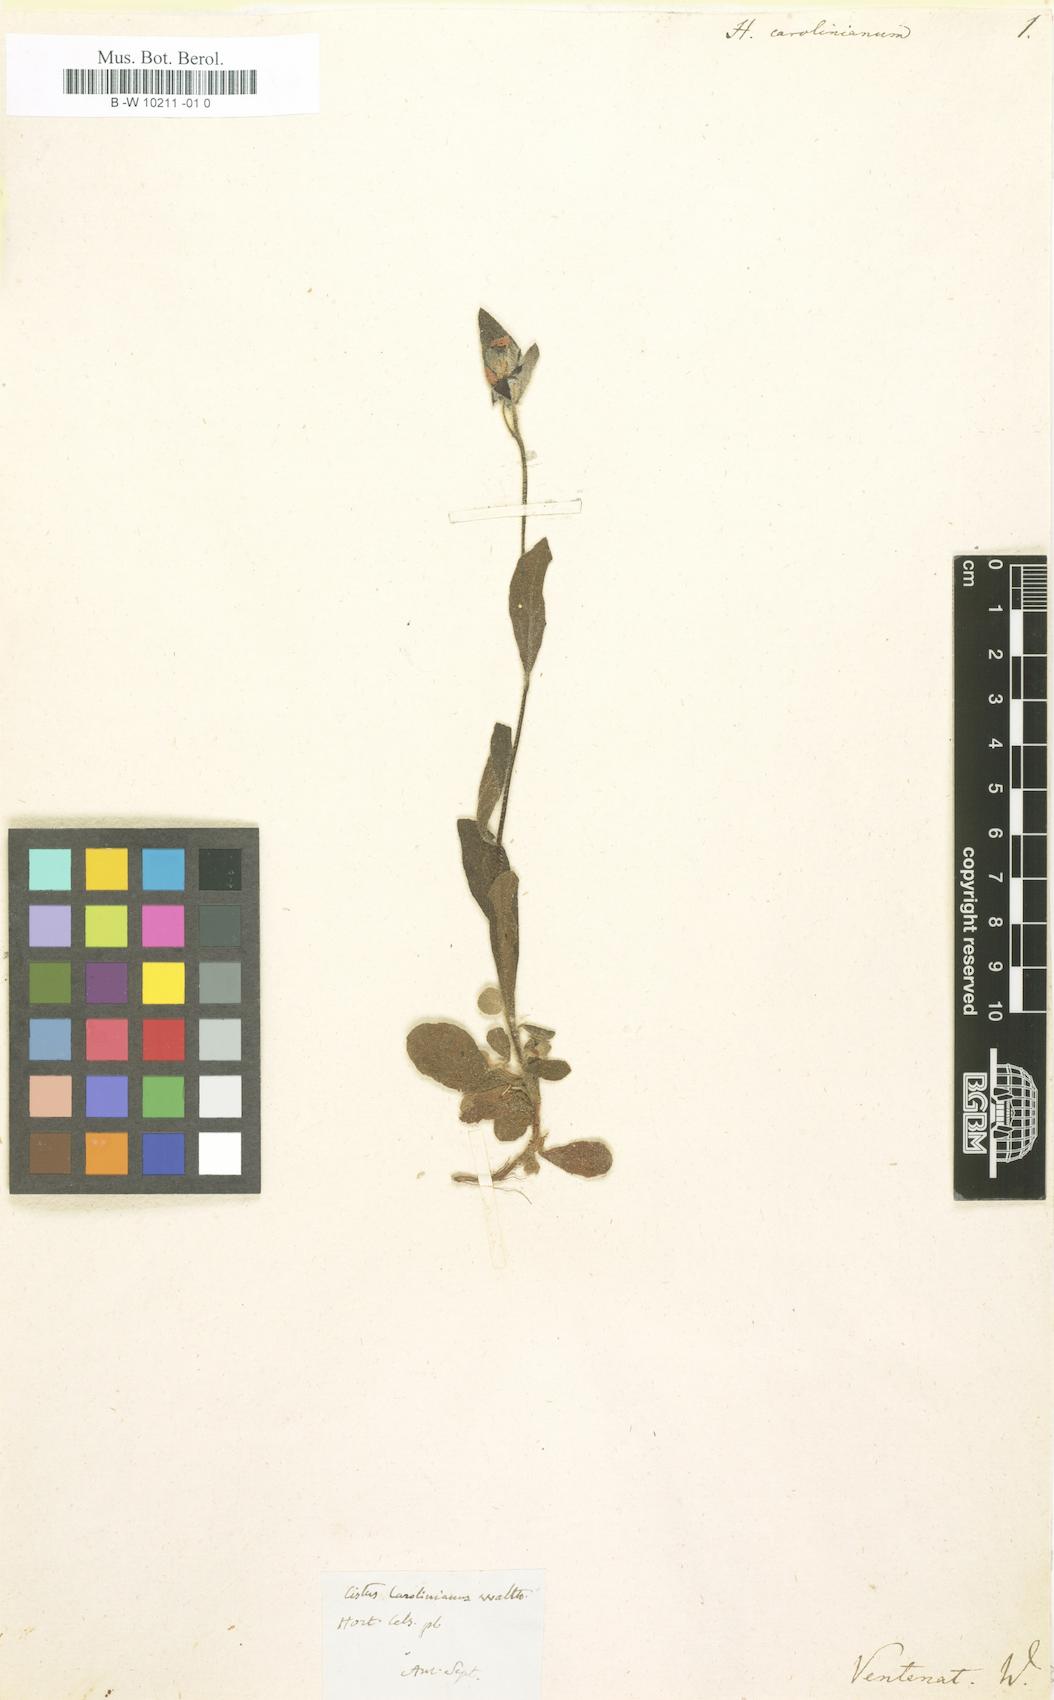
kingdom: Plantae
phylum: Tracheophyta
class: Magnoliopsida
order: Malvales
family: Cistaceae
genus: Crocanthemum
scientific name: Crocanthemum carolinianum
